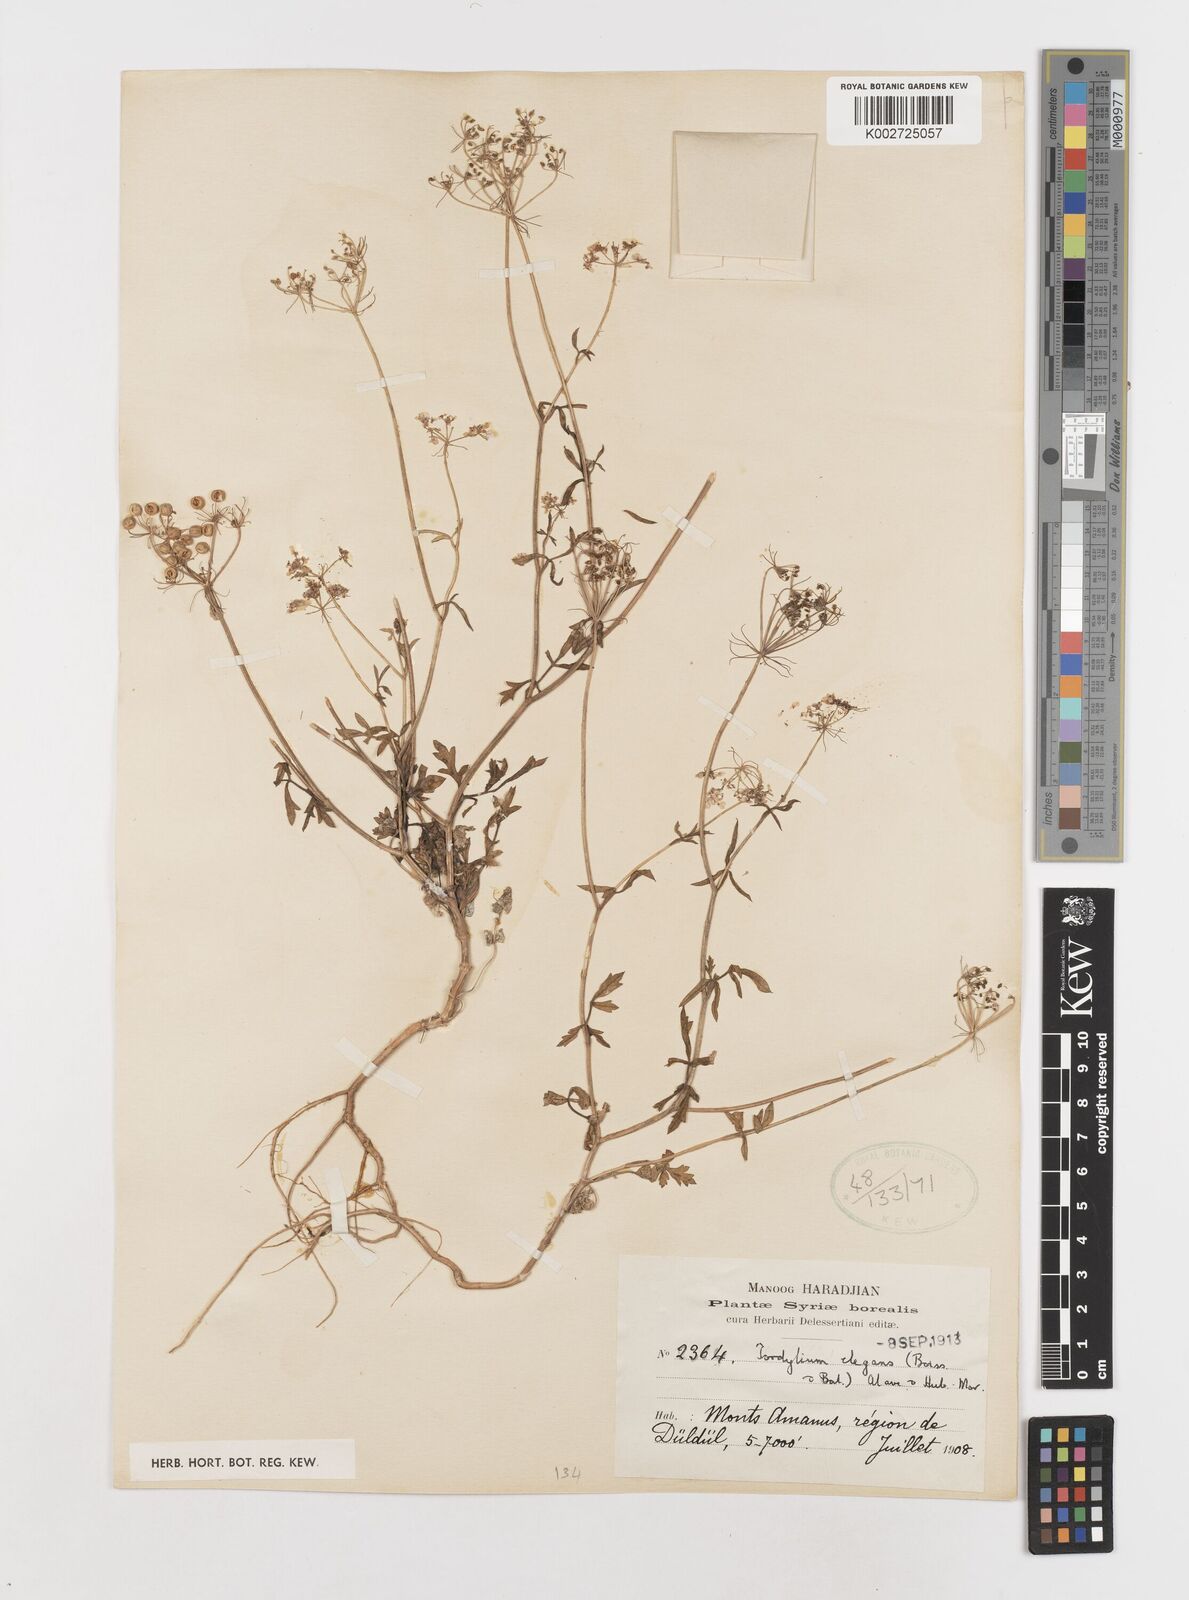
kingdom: Plantae
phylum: Tracheophyta
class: Magnoliopsida
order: Apiales
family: Apiaceae
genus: Ainsworthia
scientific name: Ainsworthia elegans
